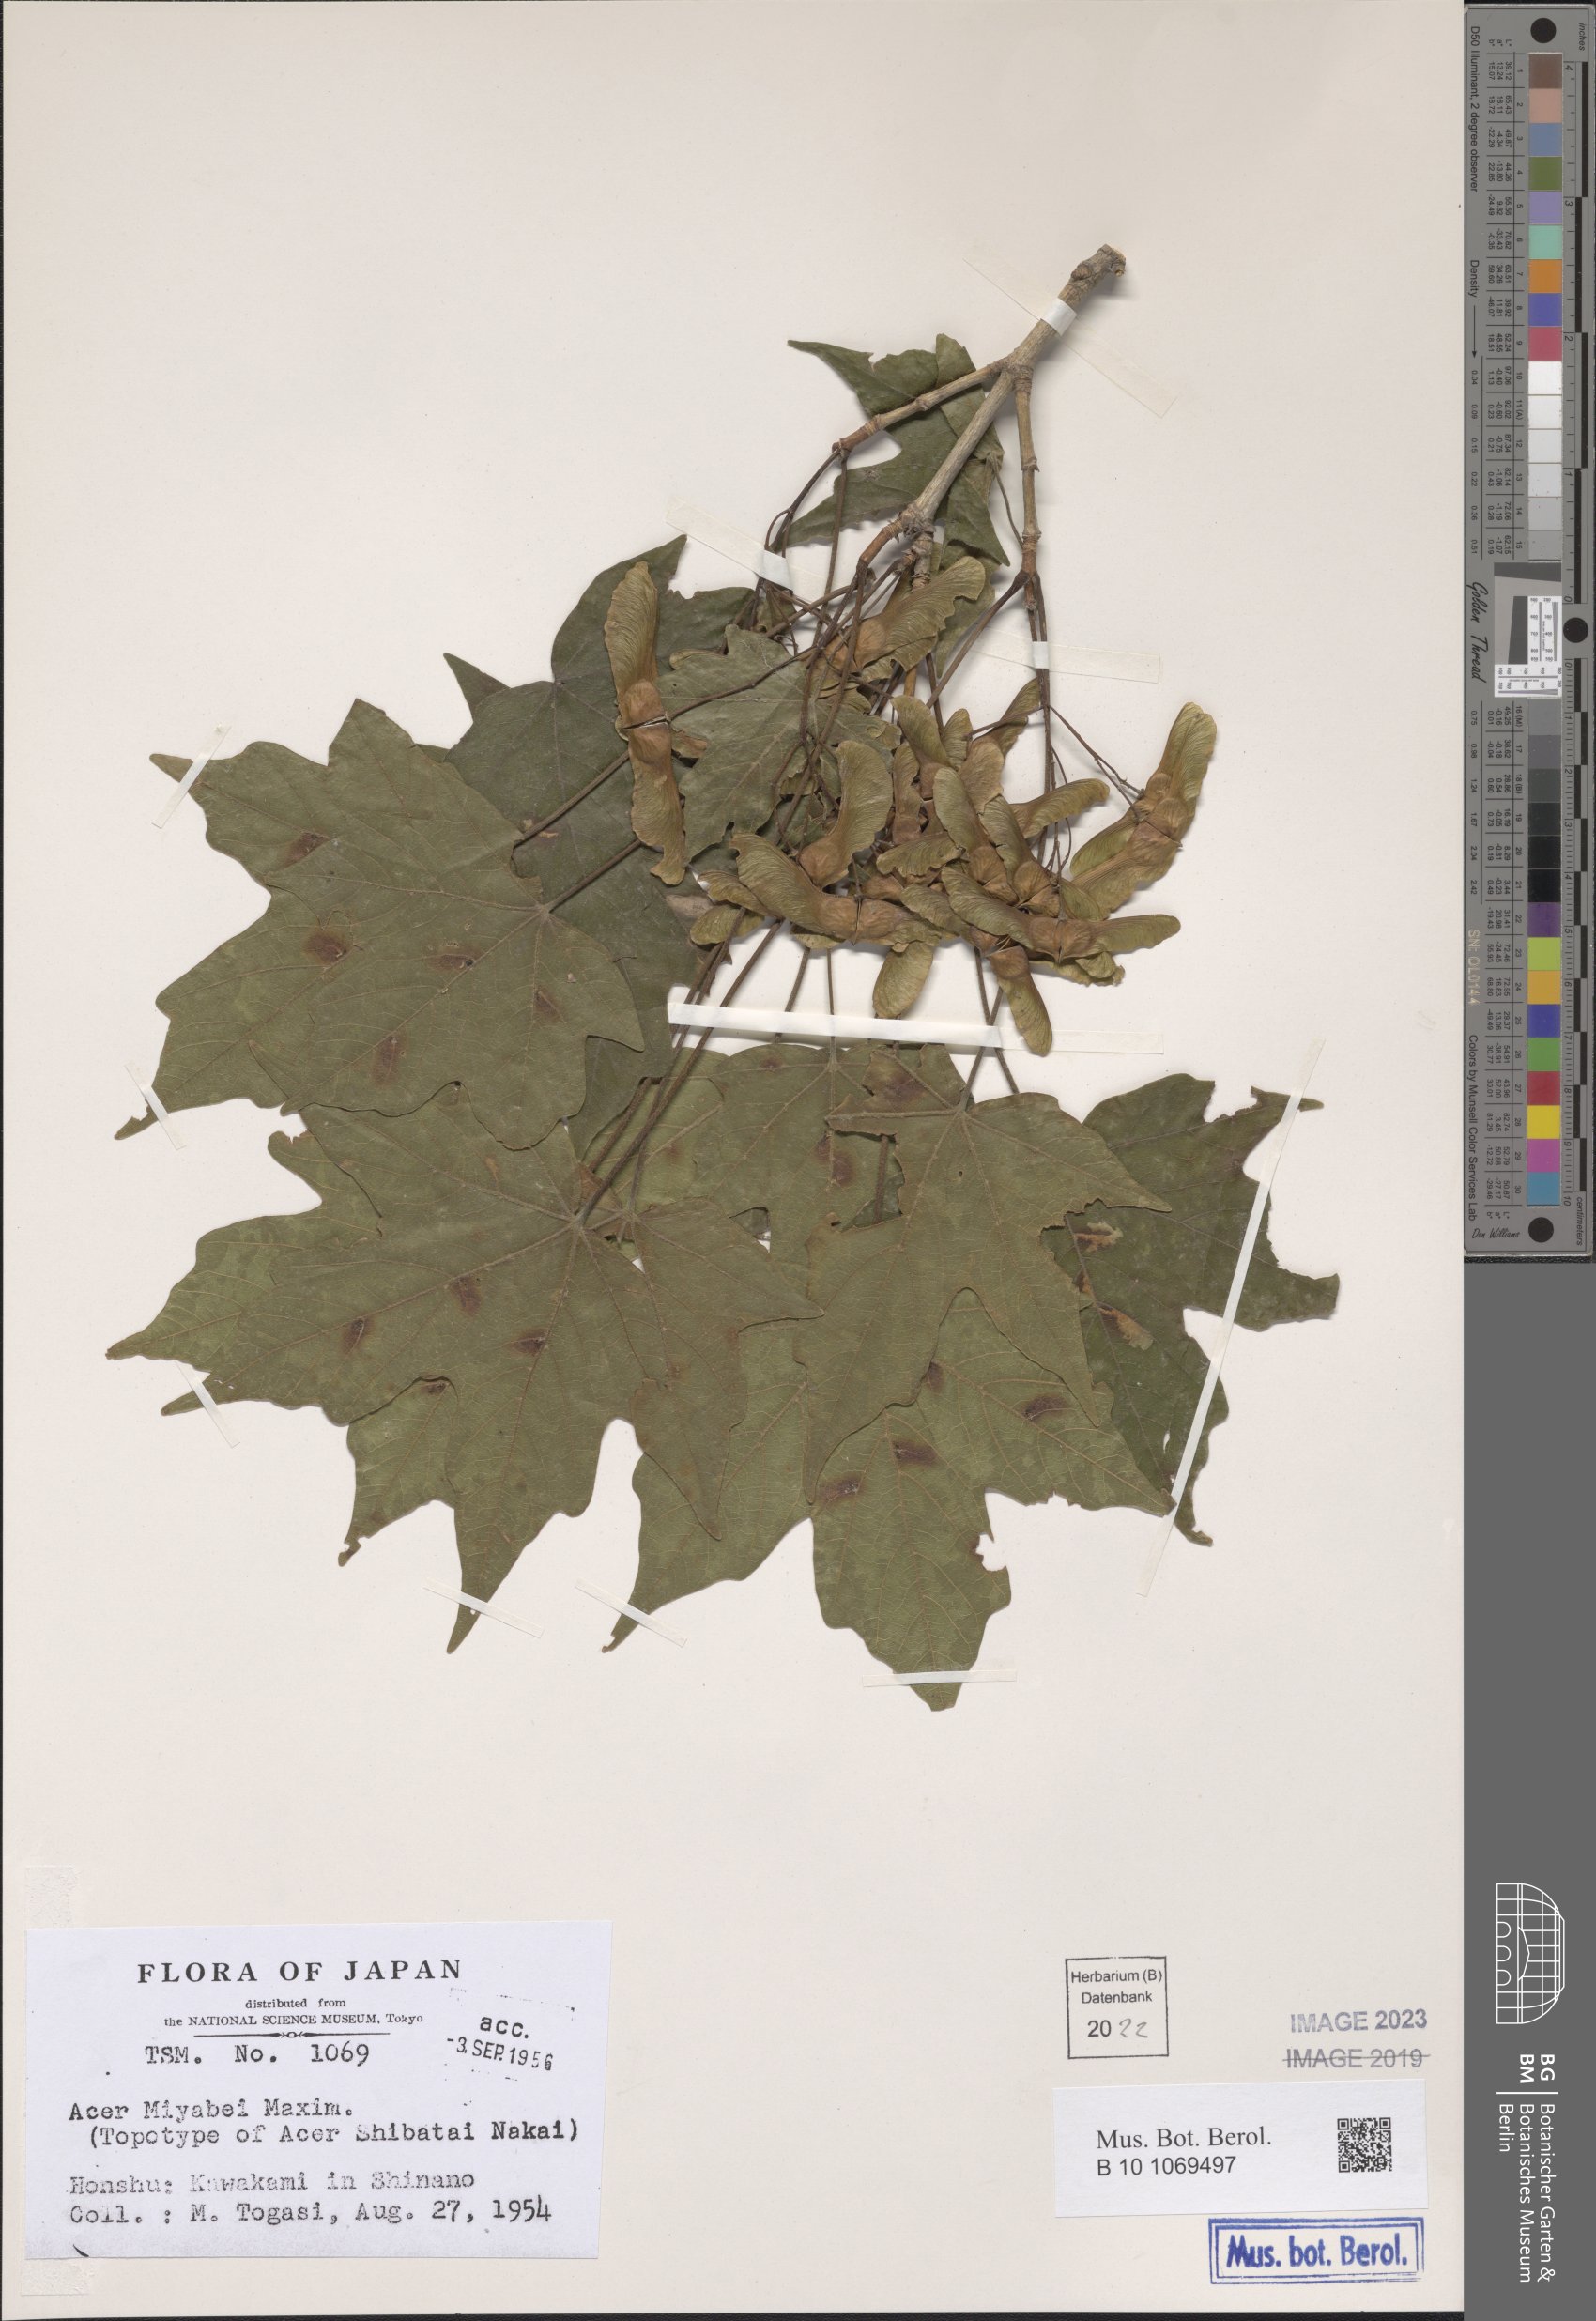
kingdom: Plantae
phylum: Tracheophyta
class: Magnoliopsida
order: Sapindales
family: Sapindaceae
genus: Acer
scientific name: Acer miyabei
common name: Miyabe's maple
